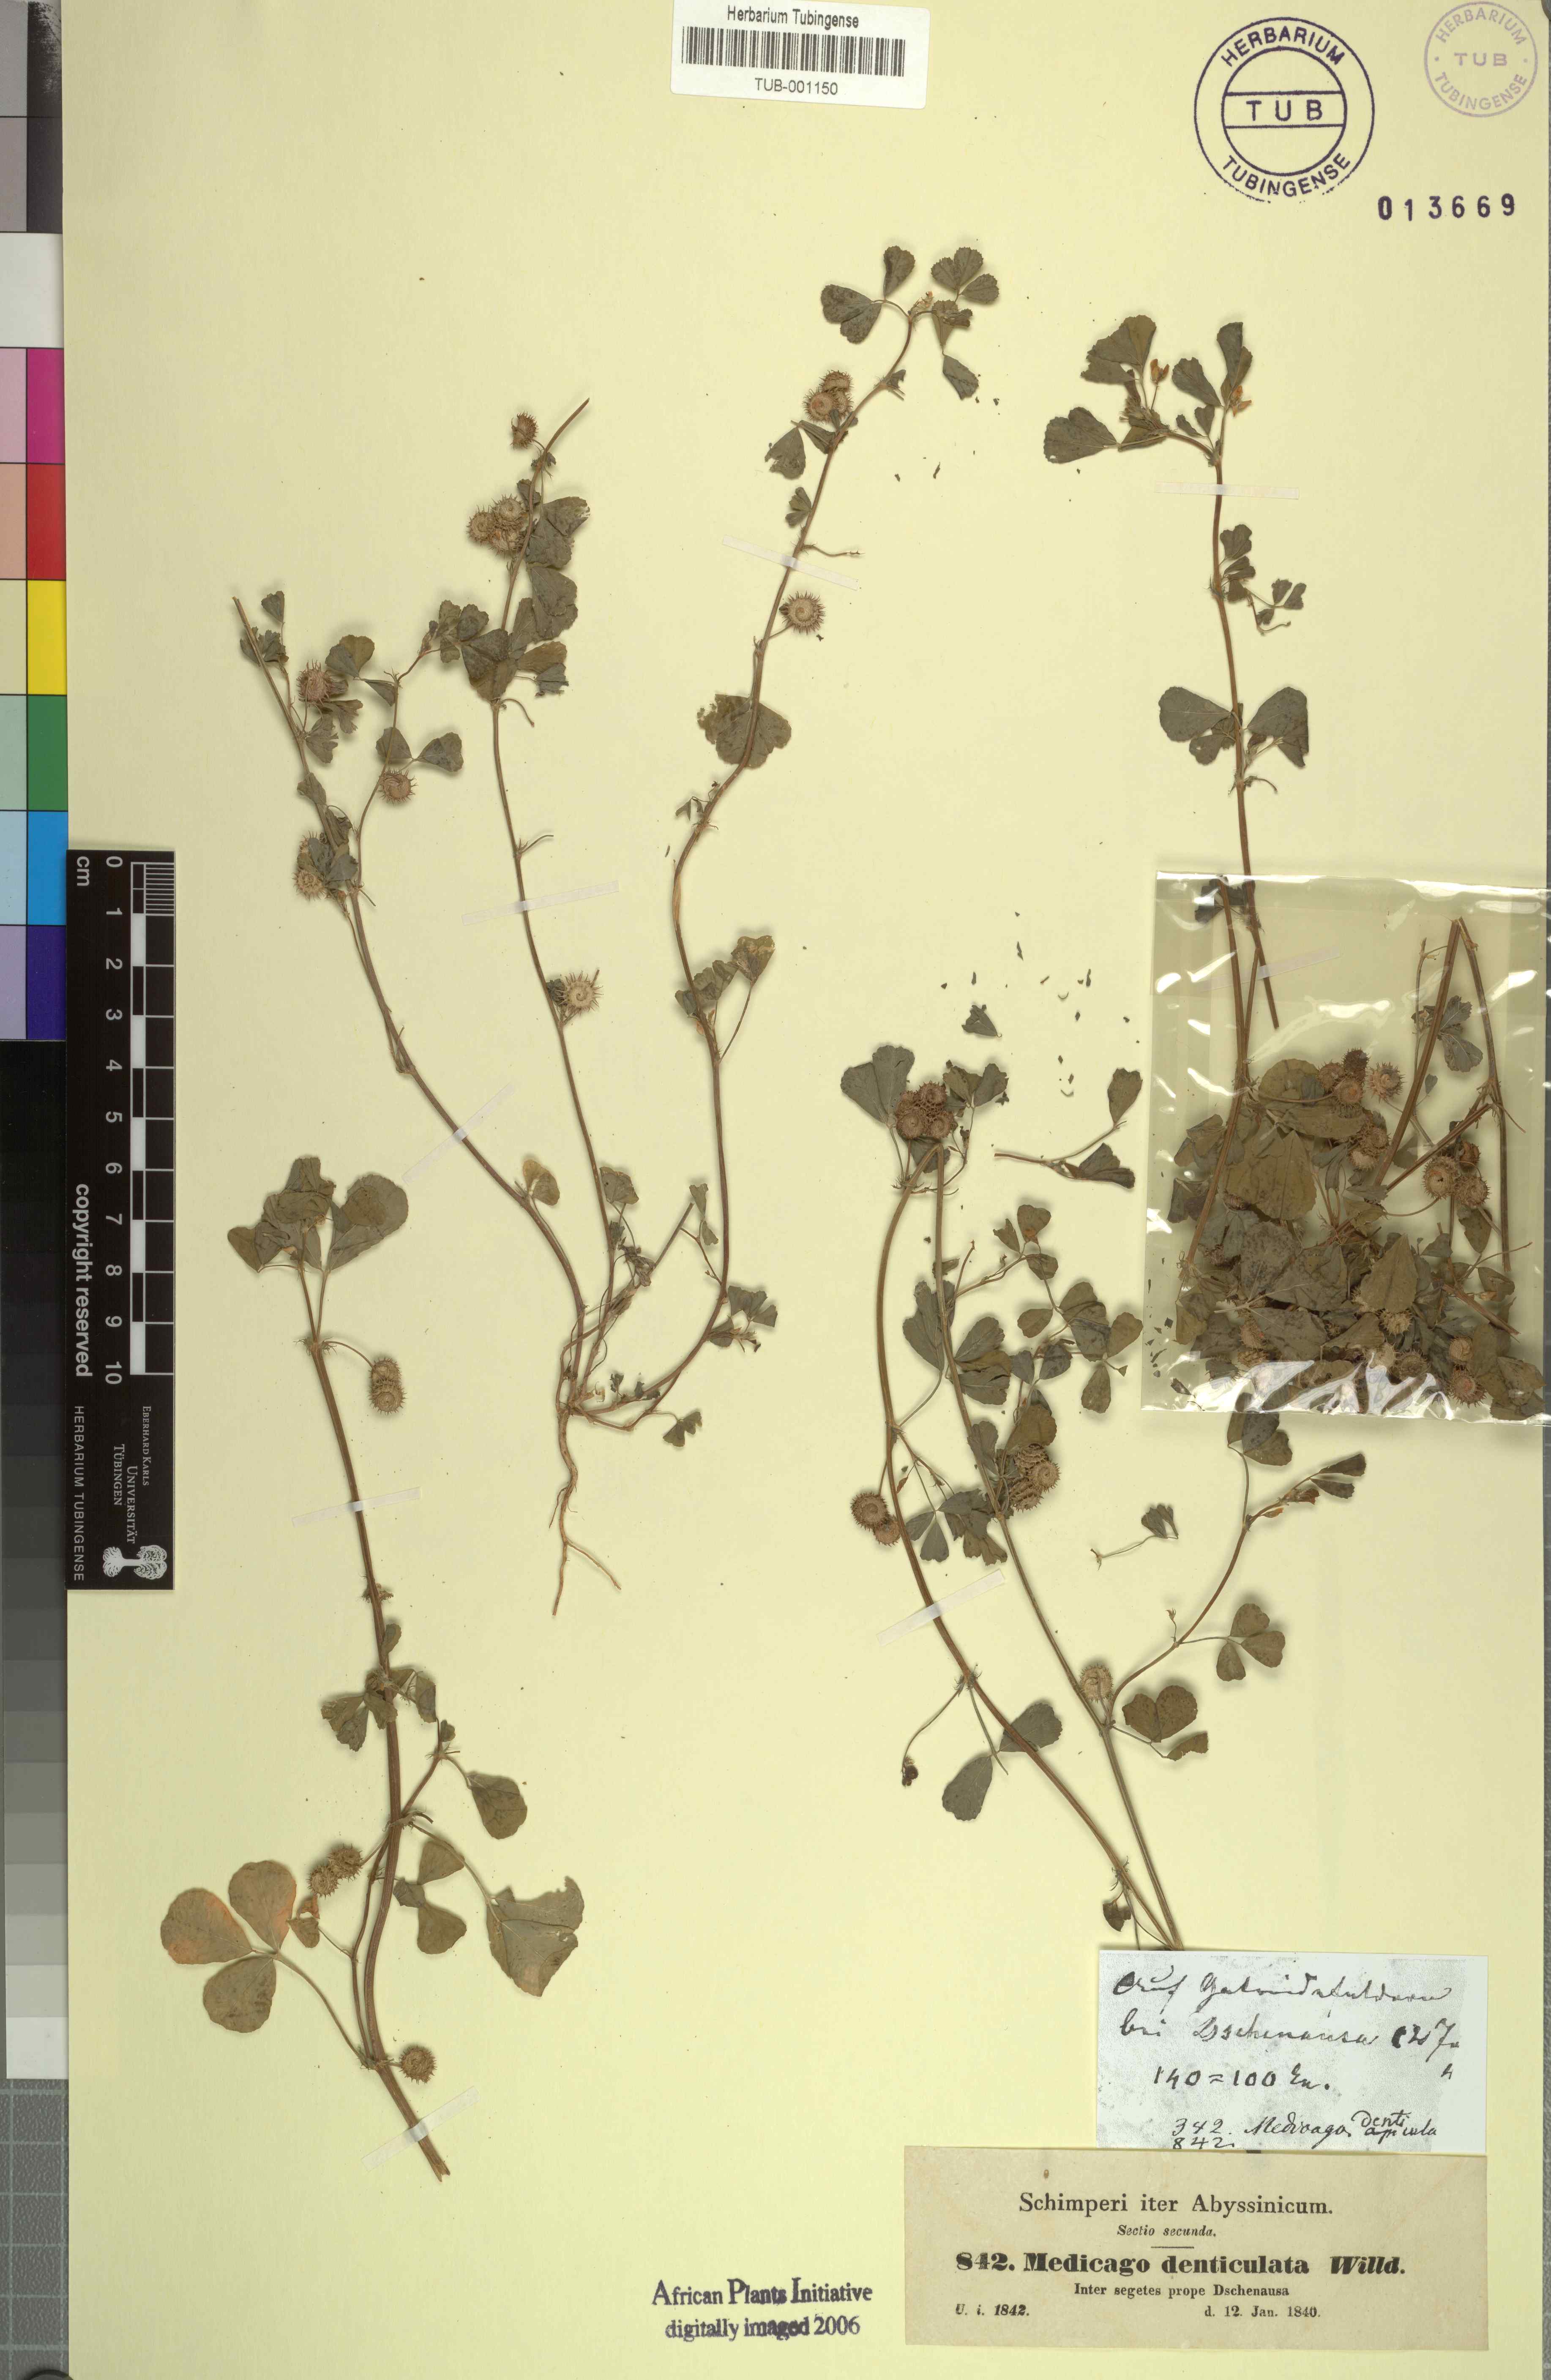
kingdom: Plantae
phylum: Tracheophyta
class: Magnoliopsida
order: Fabales
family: Fabaceae
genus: Medicago
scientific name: Medicago polymorpha
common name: Burclover
